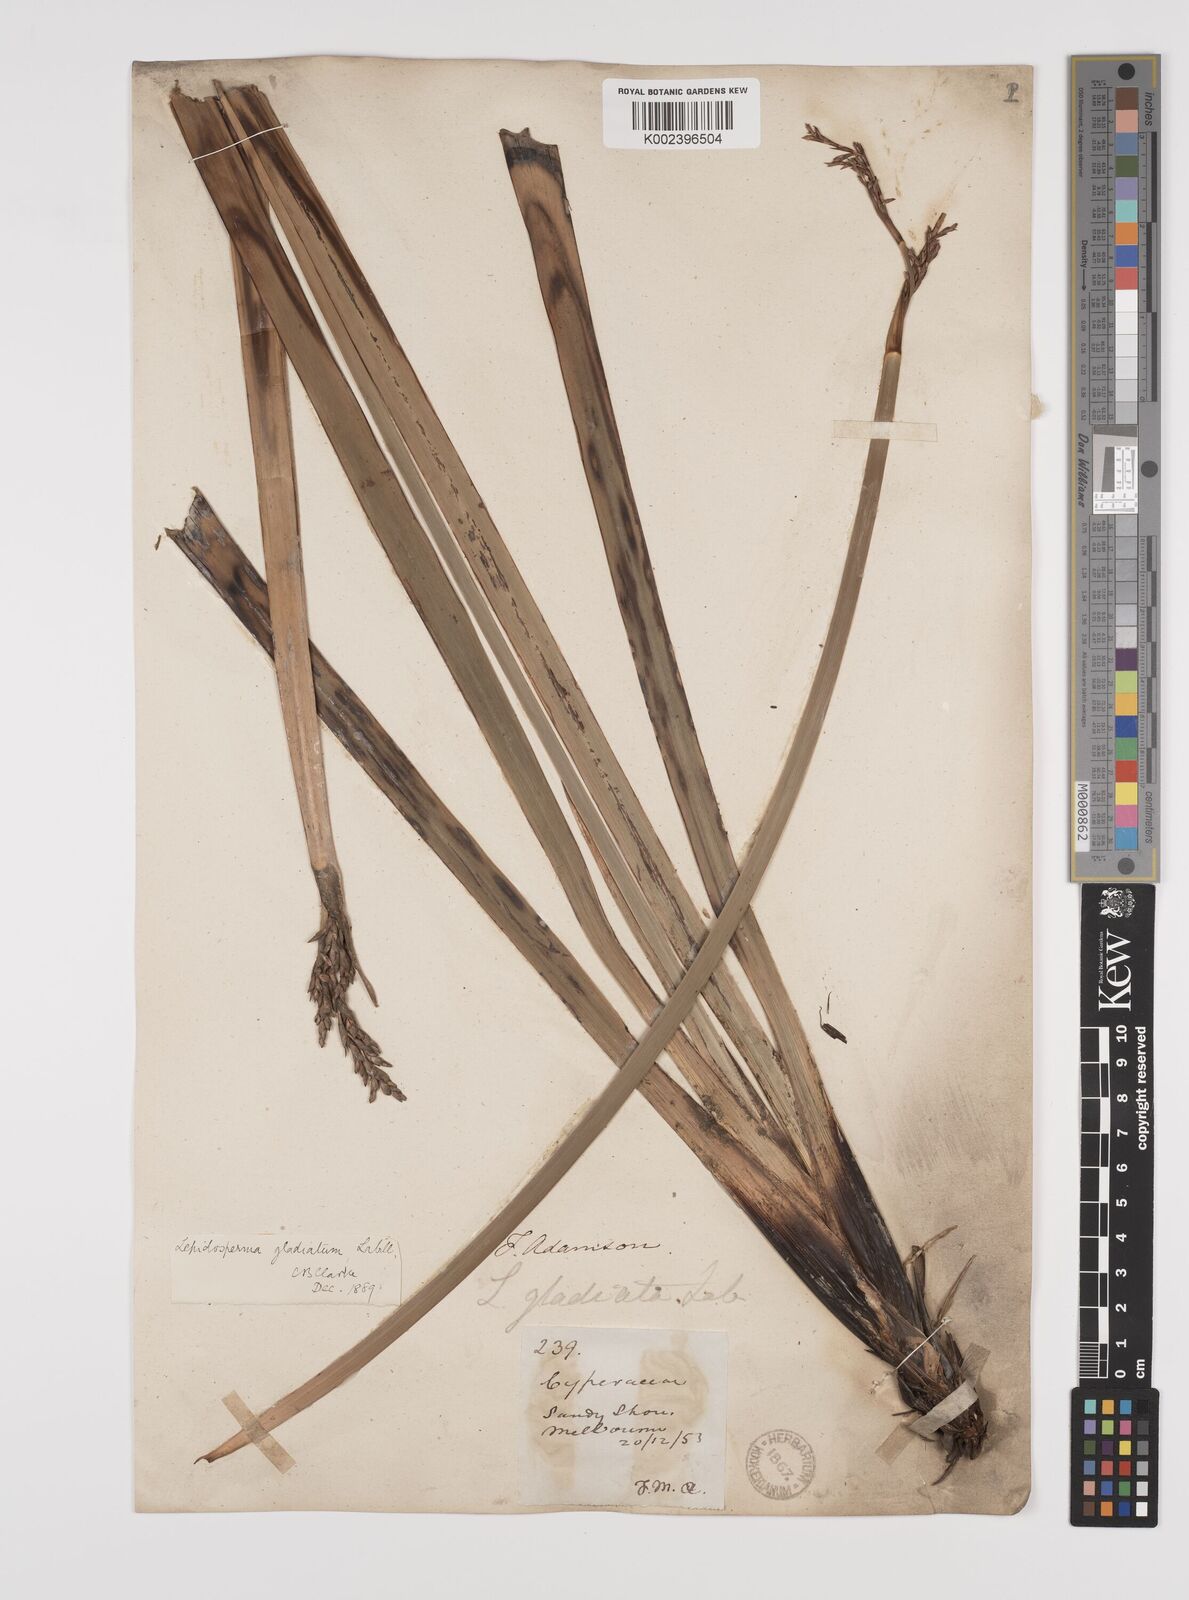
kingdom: Plantae
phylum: Tracheophyta
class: Liliopsida
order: Poales
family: Cyperaceae
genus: Lepidosperma
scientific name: Lepidosperma gladiatum
